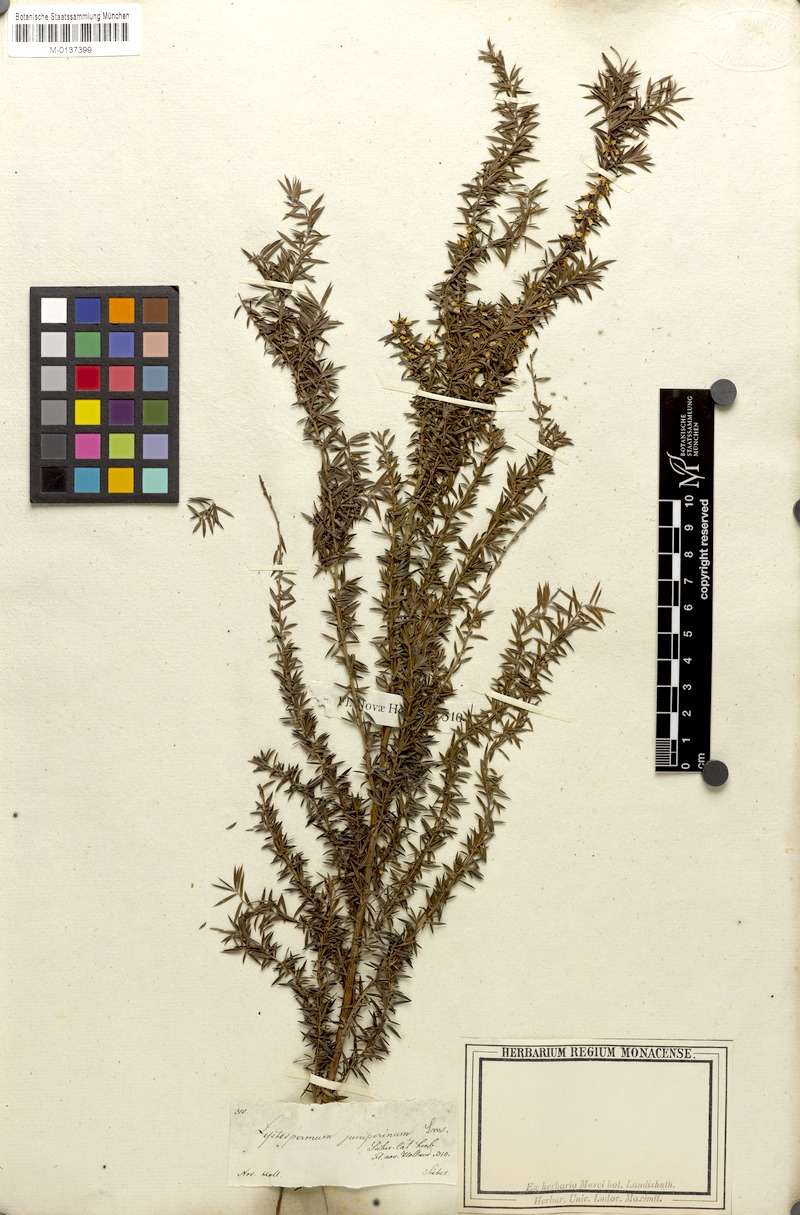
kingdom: Plantae
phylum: Tracheophyta
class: Magnoliopsida
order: Myrtales
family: Myrtaceae
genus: Leptospermum
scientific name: Leptospermum juniperinum
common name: Prickly teatree
